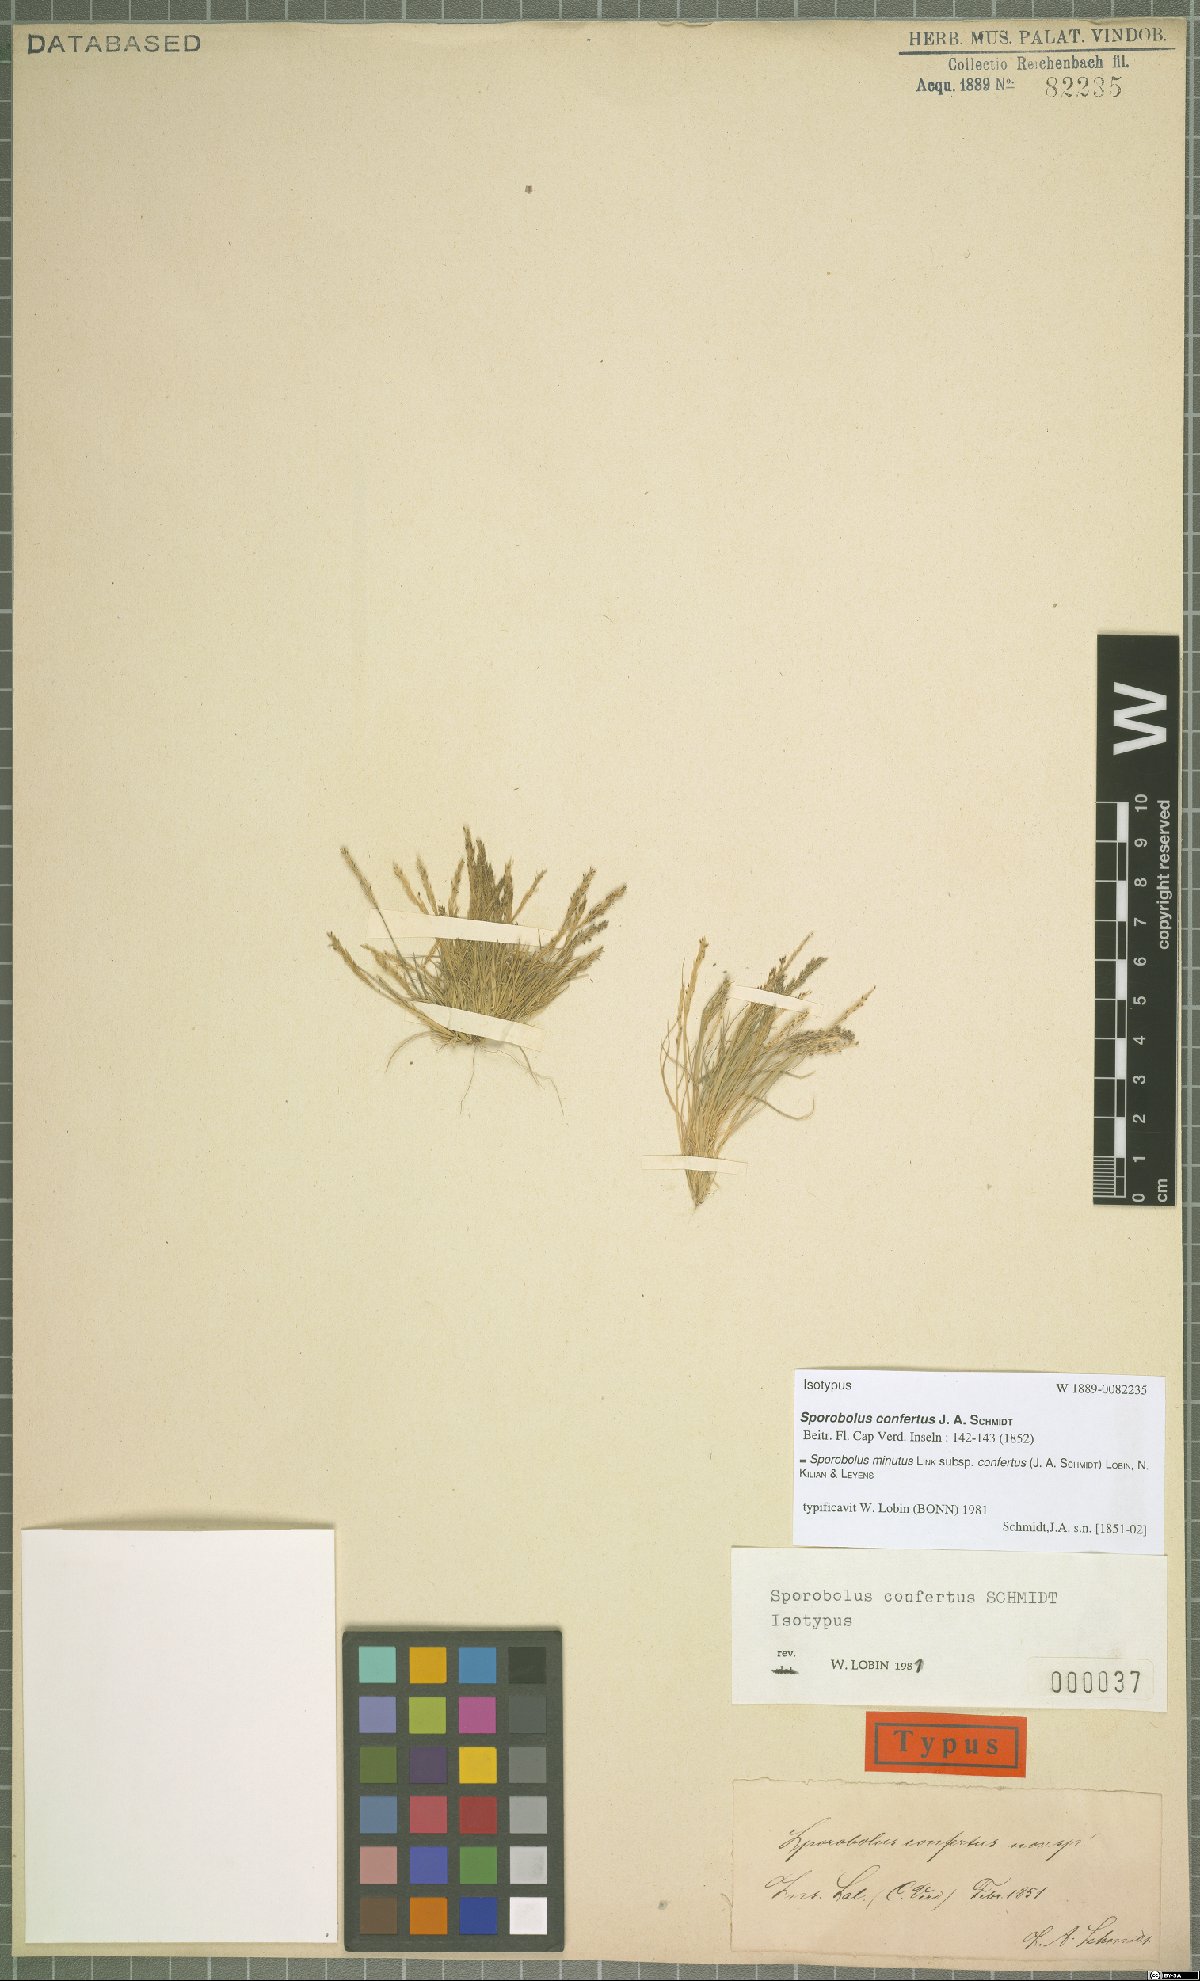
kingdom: Plantae
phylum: Tracheophyta
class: Liliopsida
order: Poales
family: Poaceae
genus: Sporobolus
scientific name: Sporobolus virginicus
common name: Beach dropseed
